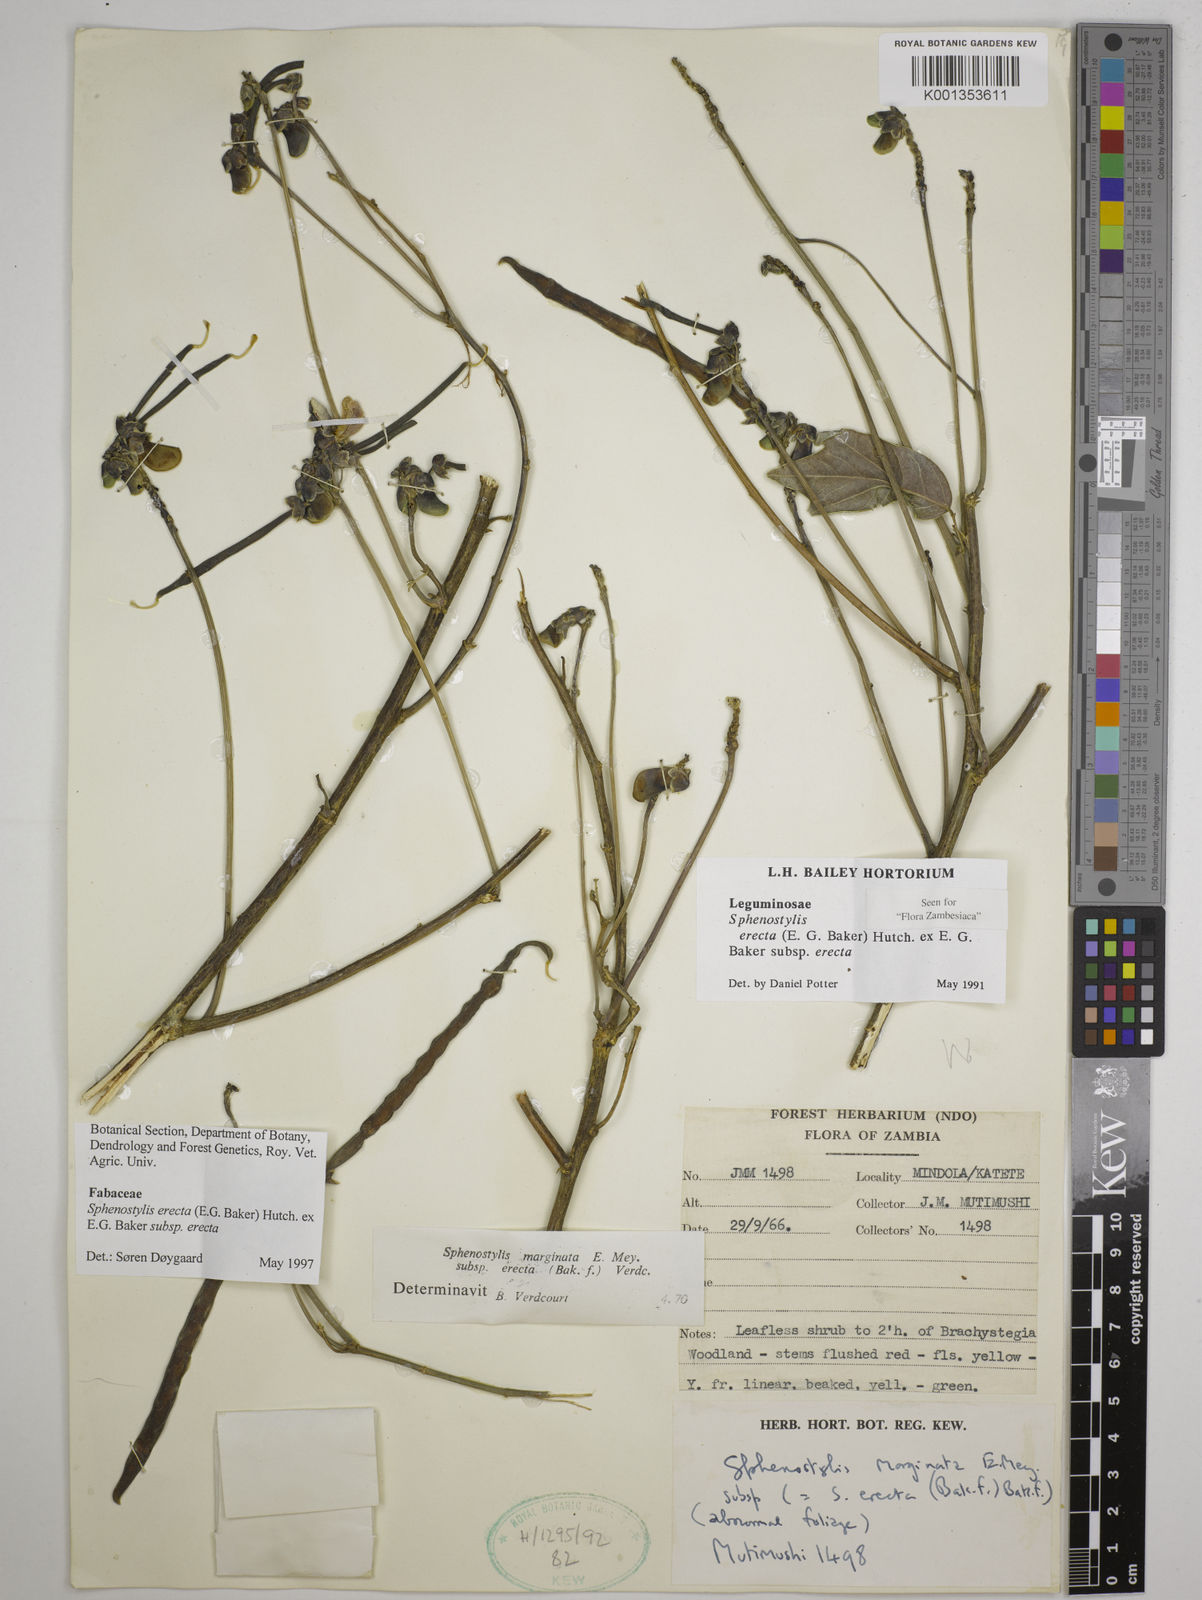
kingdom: Plantae
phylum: Tracheophyta
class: Magnoliopsida
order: Fabales
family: Fabaceae
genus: Sphenostylis
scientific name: Sphenostylis erecta
